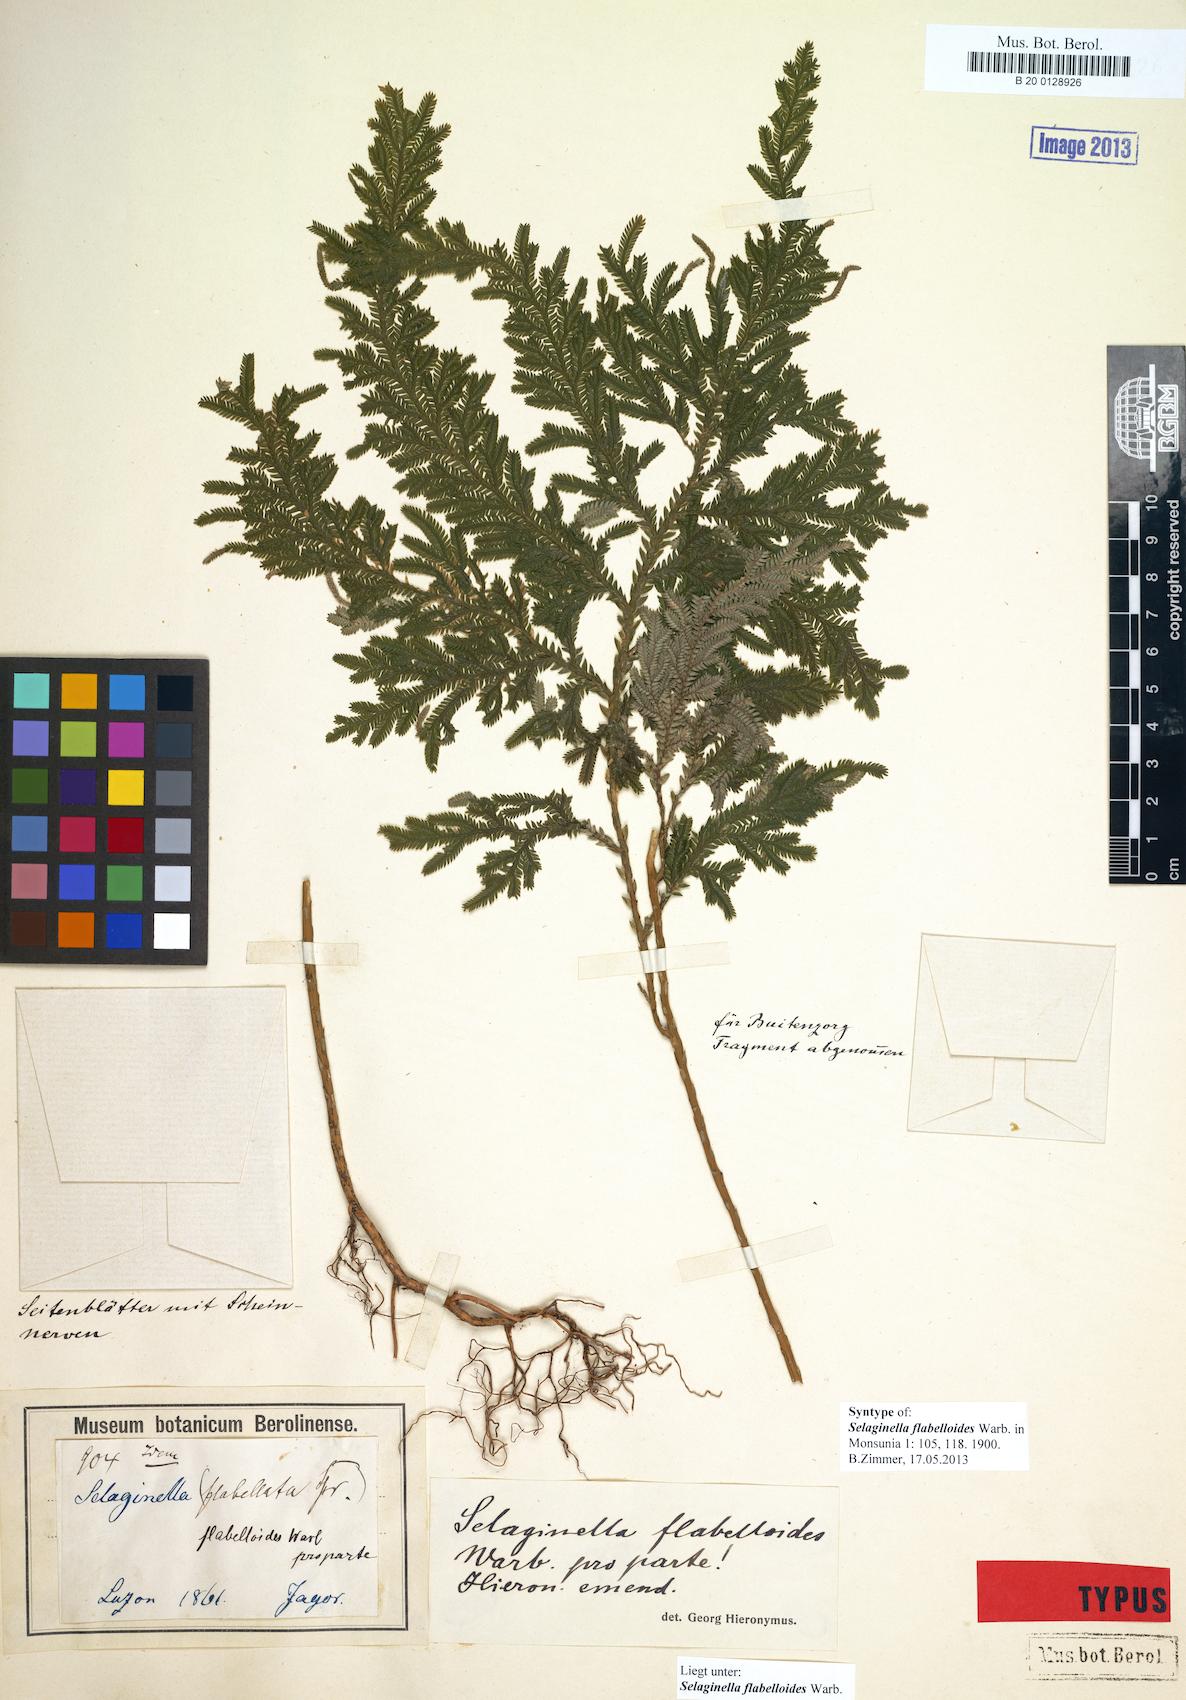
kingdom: Plantae
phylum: Tracheophyta
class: Lycopodiopsida
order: Selaginellales
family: Selaginellaceae
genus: Selaginella
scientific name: Selaginella cupressina
